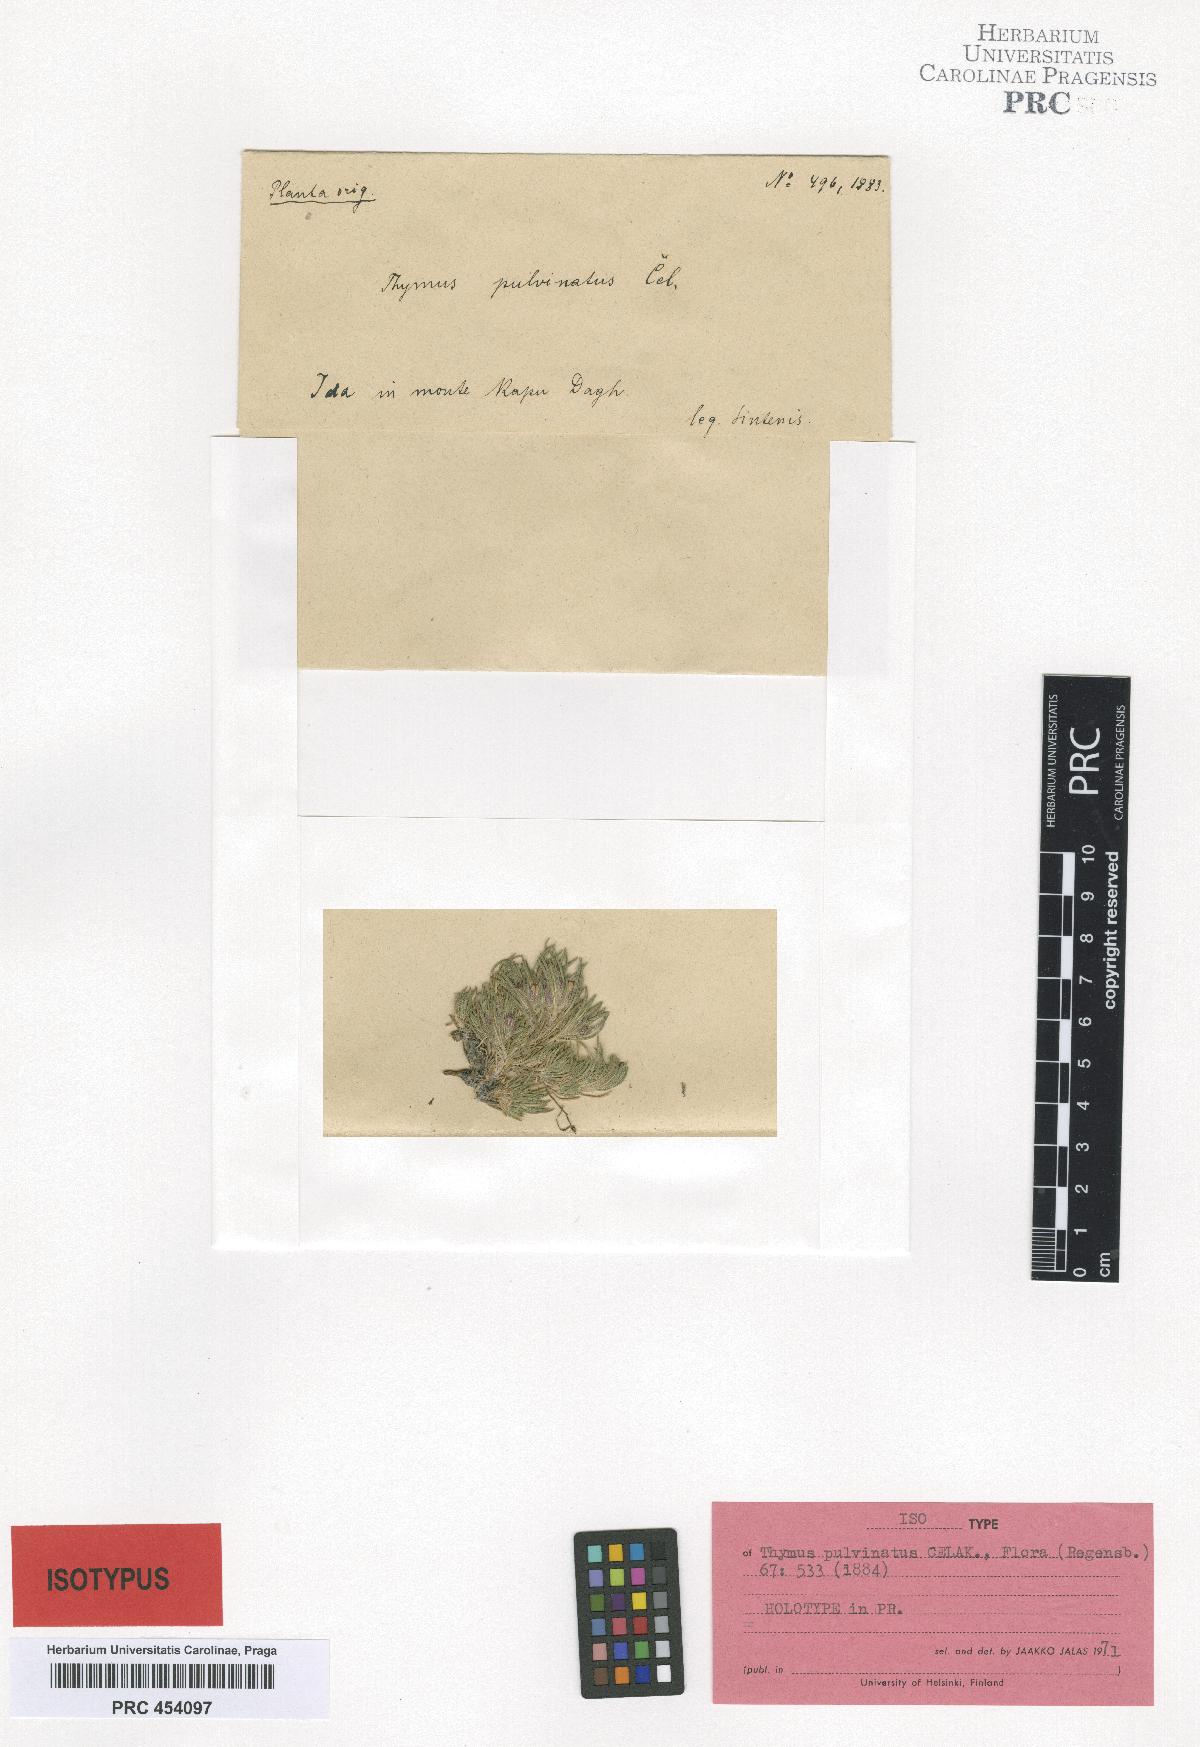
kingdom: Plantae
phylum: Tracheophyta
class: Magnoliopsida
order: Lamiales
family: Lamiaceae
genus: Thymus
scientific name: Thymus pulvinatus
